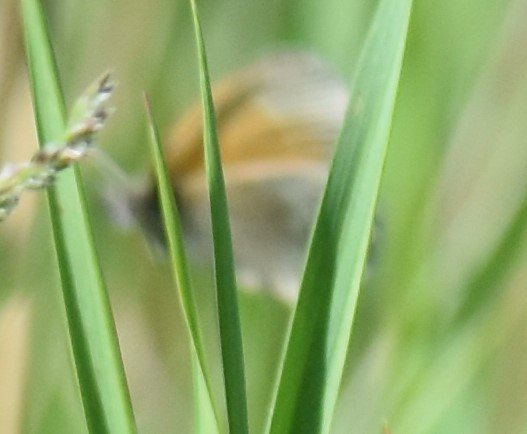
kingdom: Animalia
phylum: Arthropoda
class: Insecta
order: Lepidoptera
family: Nymphalidae
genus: Coenonympha
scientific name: Coenonympha tullia
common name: Large Heath
